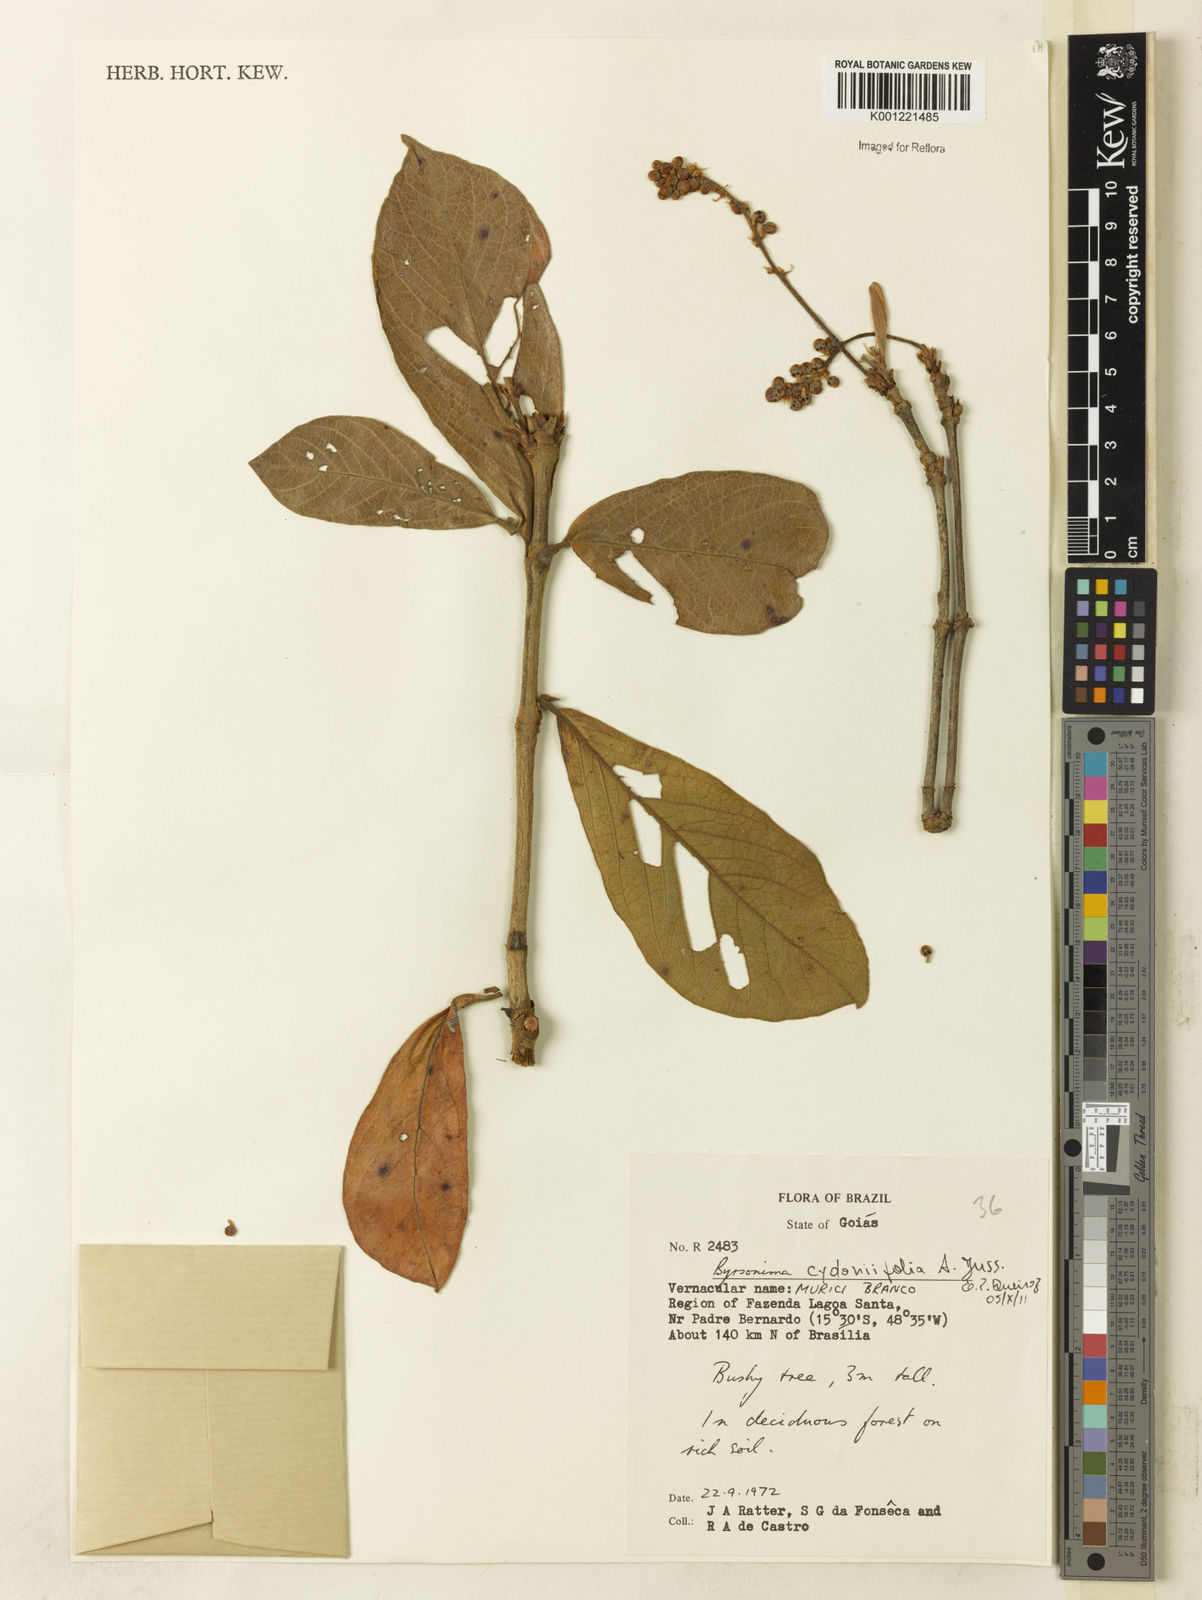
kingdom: Plantae
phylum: Tracheophyta
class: Magnoliopsida
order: Malpighiales
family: Malpighiaceae
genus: Byrsonima
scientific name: Byrsonima cydoniifolia
